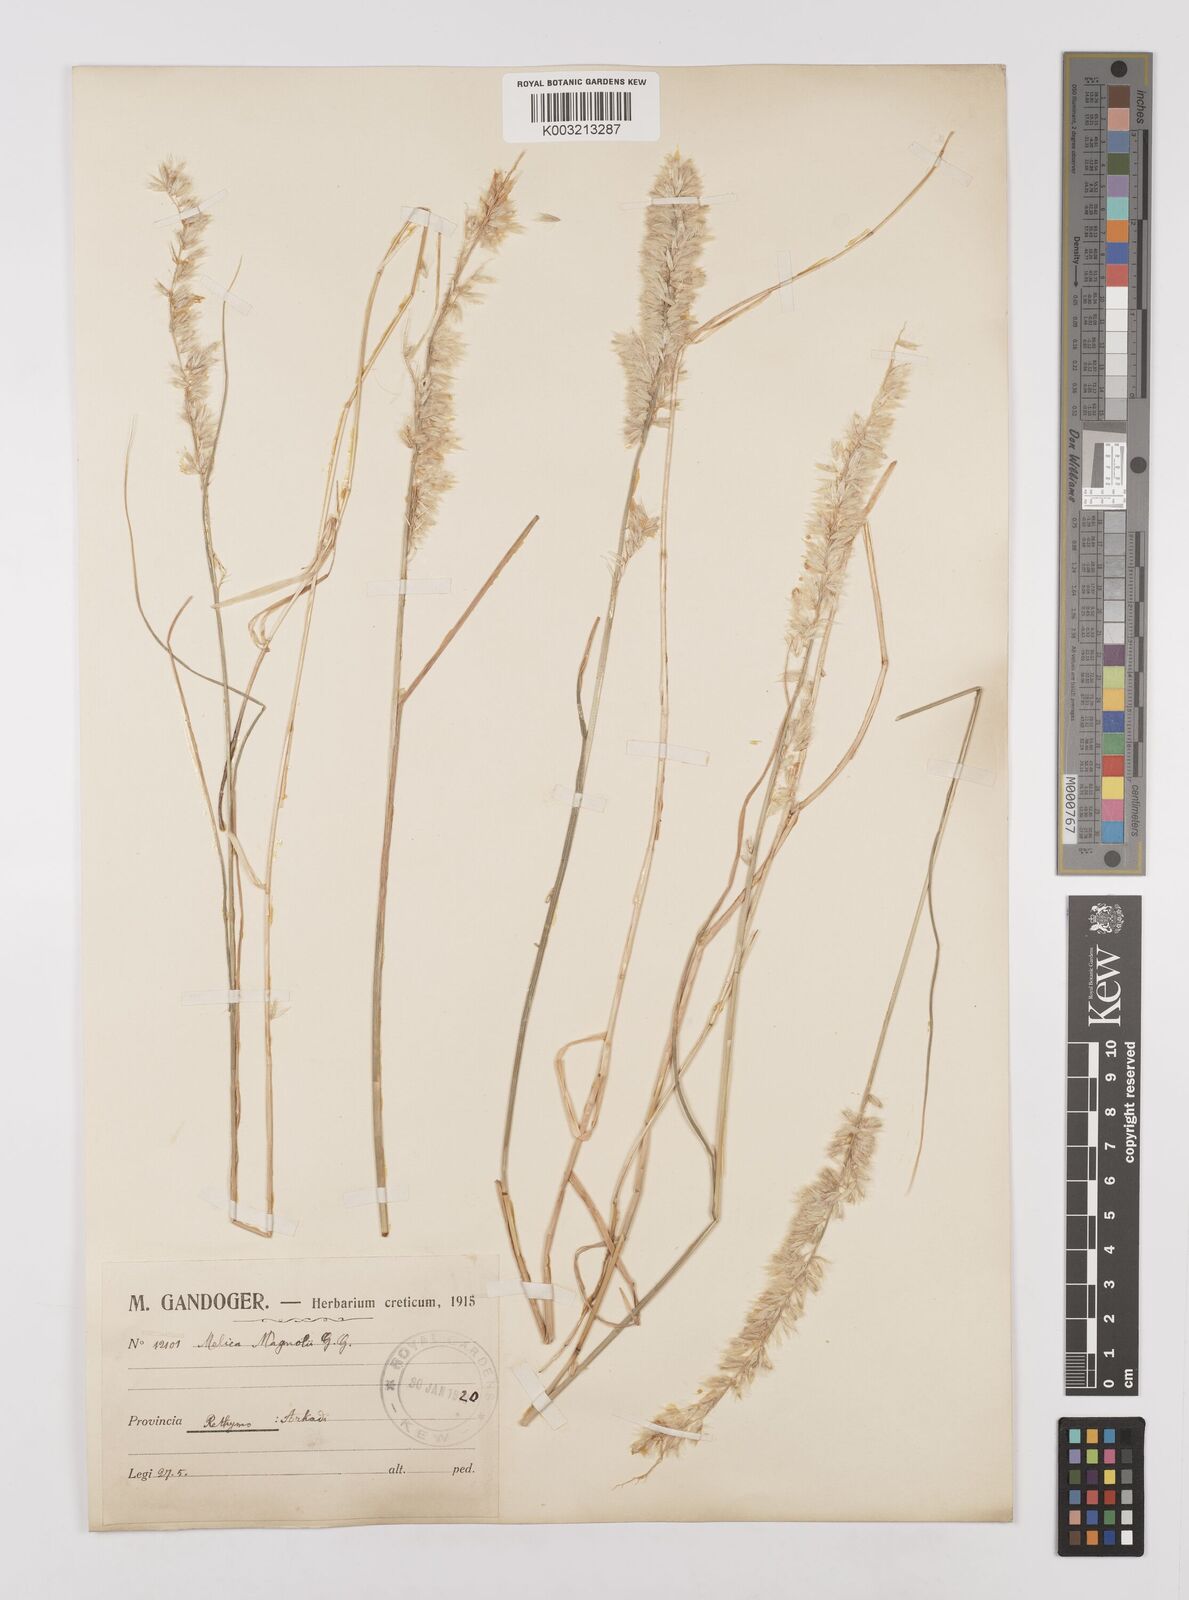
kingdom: Plantae
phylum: Tracheophyta
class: Liliopsida
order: Poales
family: Poaceae
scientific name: Poaceae
